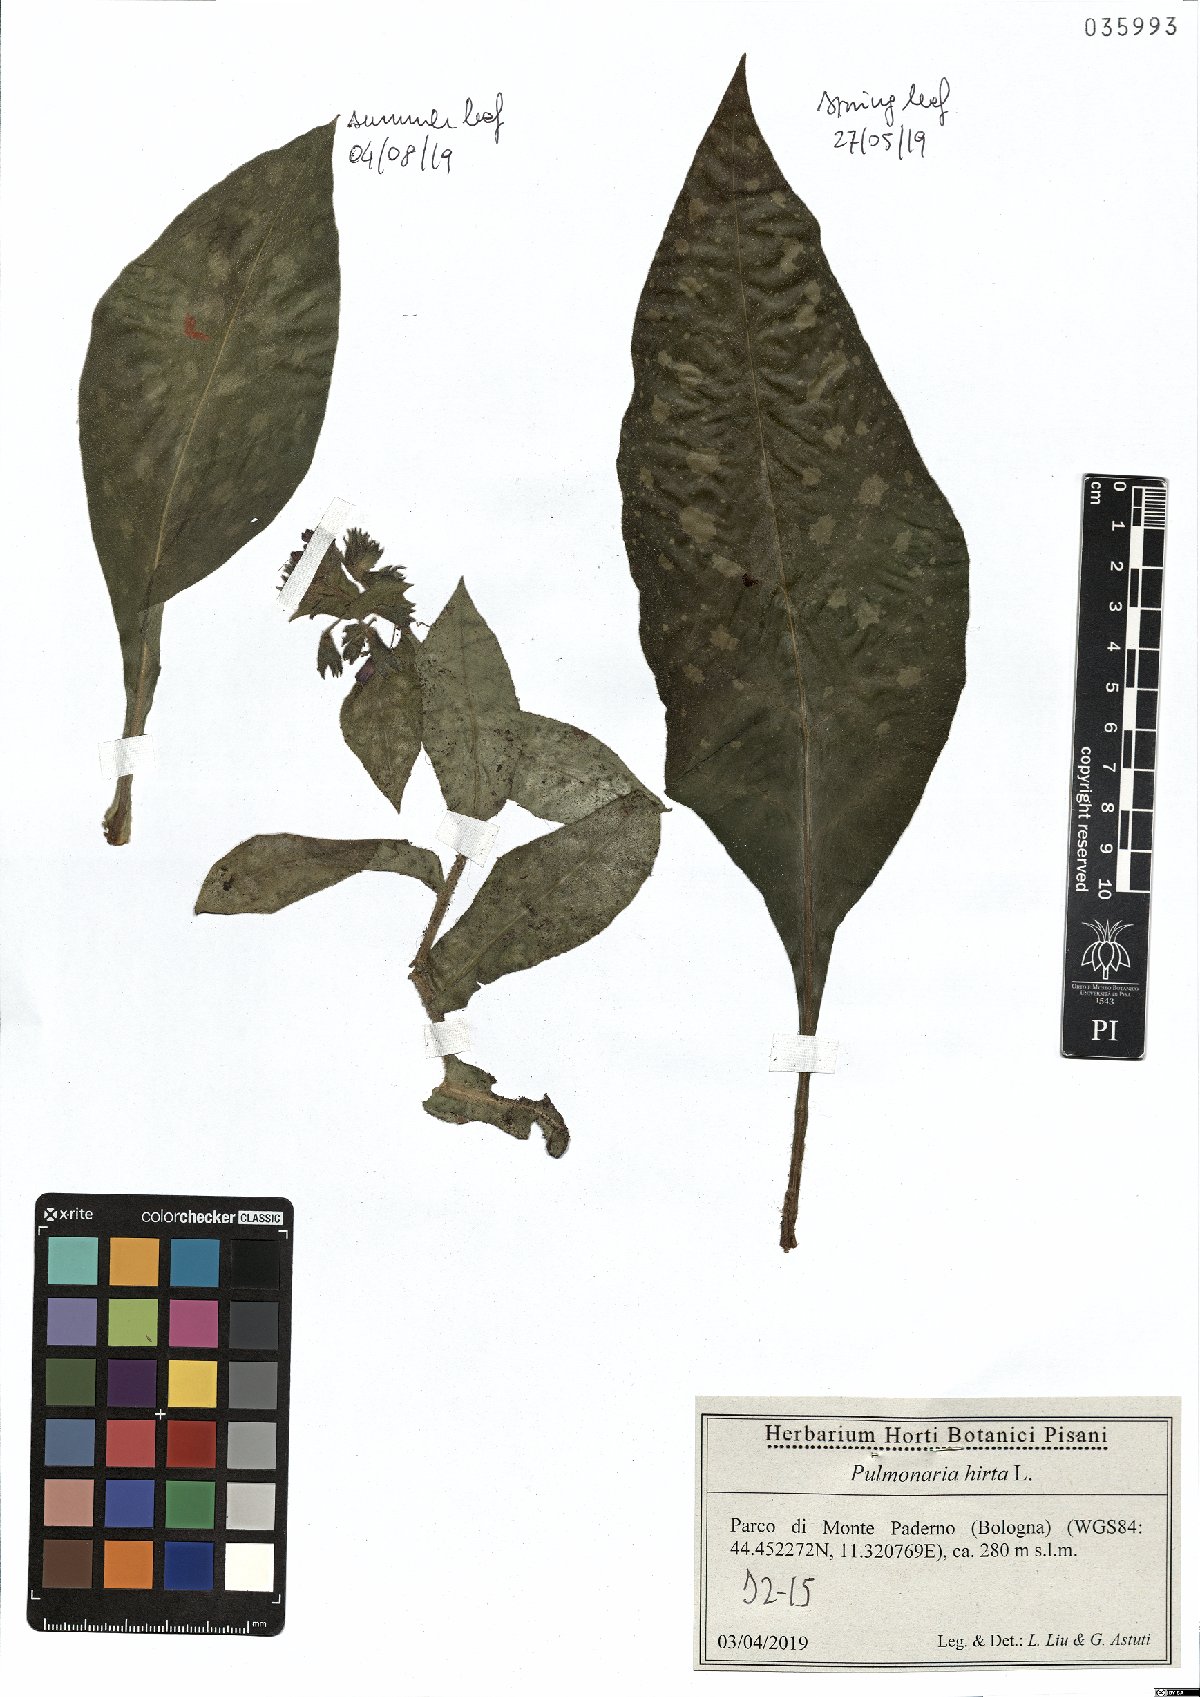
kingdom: Plantae
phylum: Tracheophyta
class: Magnoliopsida
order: Boraginales
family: Boraginaceae
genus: Pulmonaria
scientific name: Pulmonaria hirta
